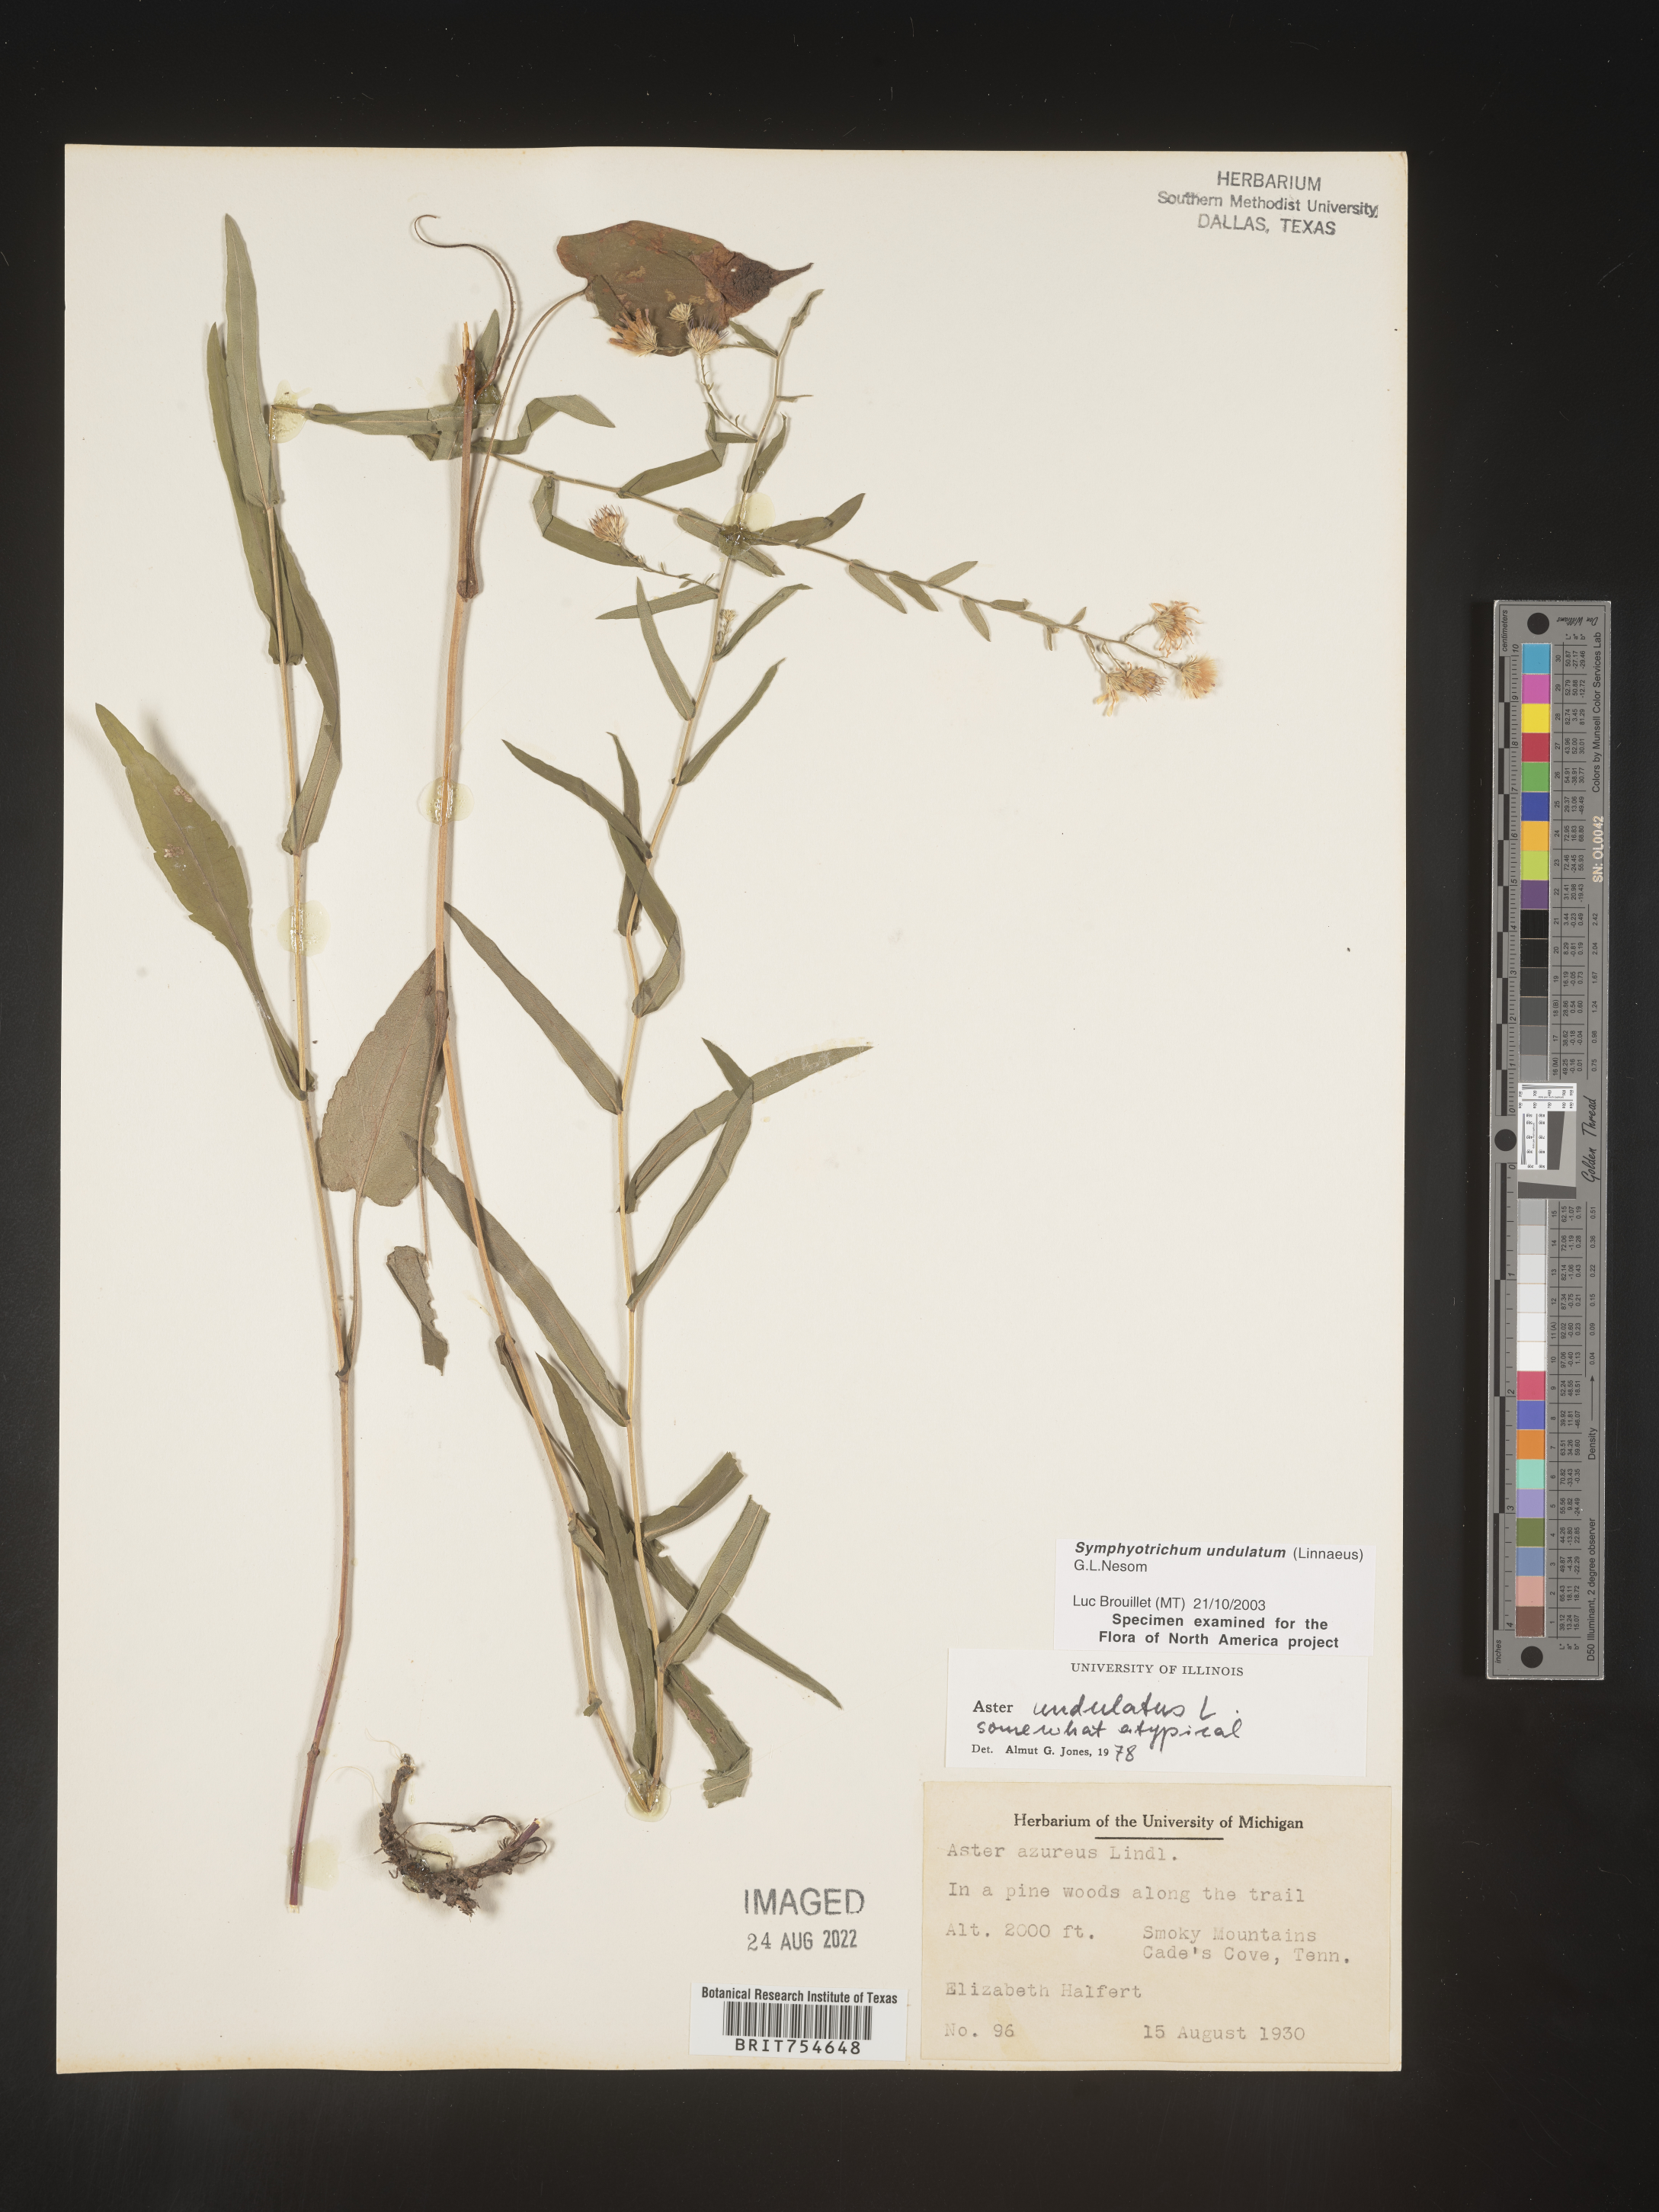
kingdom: Plantae
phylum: Tracheophyta
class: Magnoliopsida
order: Asterales
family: Asteraceae
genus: Symphyotrichum
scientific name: Symphyotrichum undulatum
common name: Clasping heart-leaf aster
